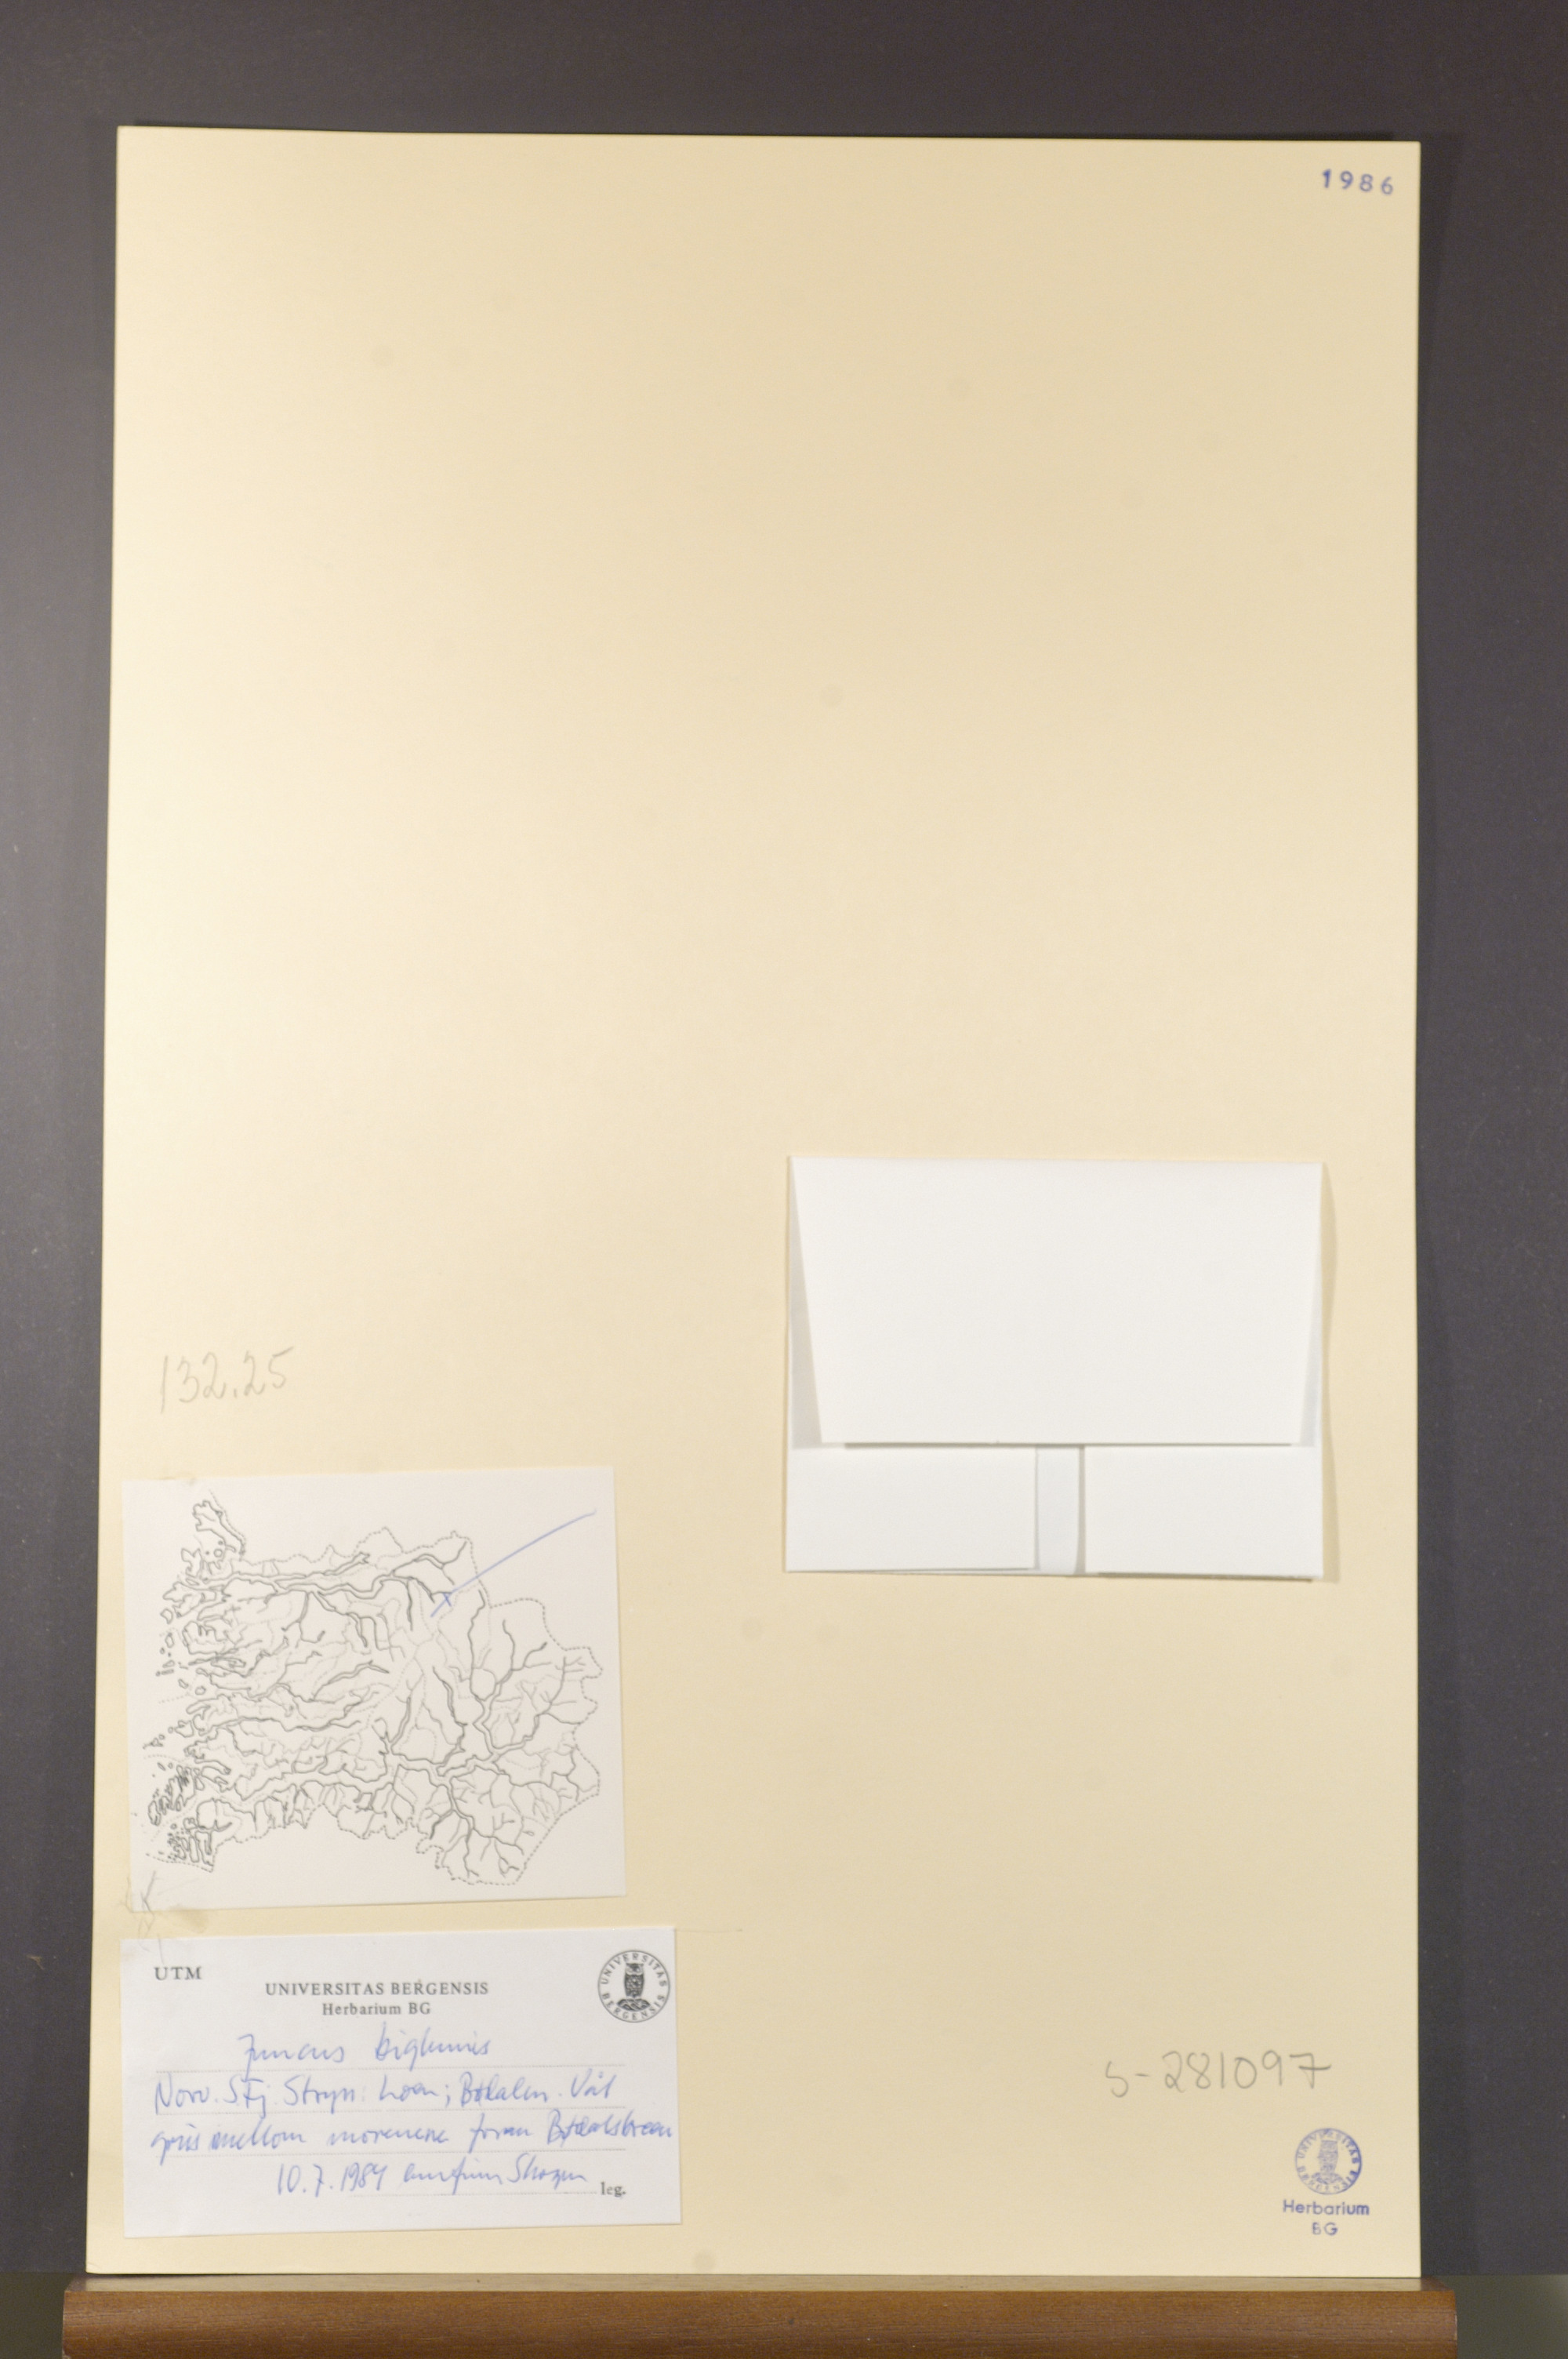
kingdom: Plantae
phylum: Tracheophyta
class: Liliopsida
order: Poales
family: Juncaceae
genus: Juncus
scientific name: Juncus biglumis
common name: Two-flowered rush
